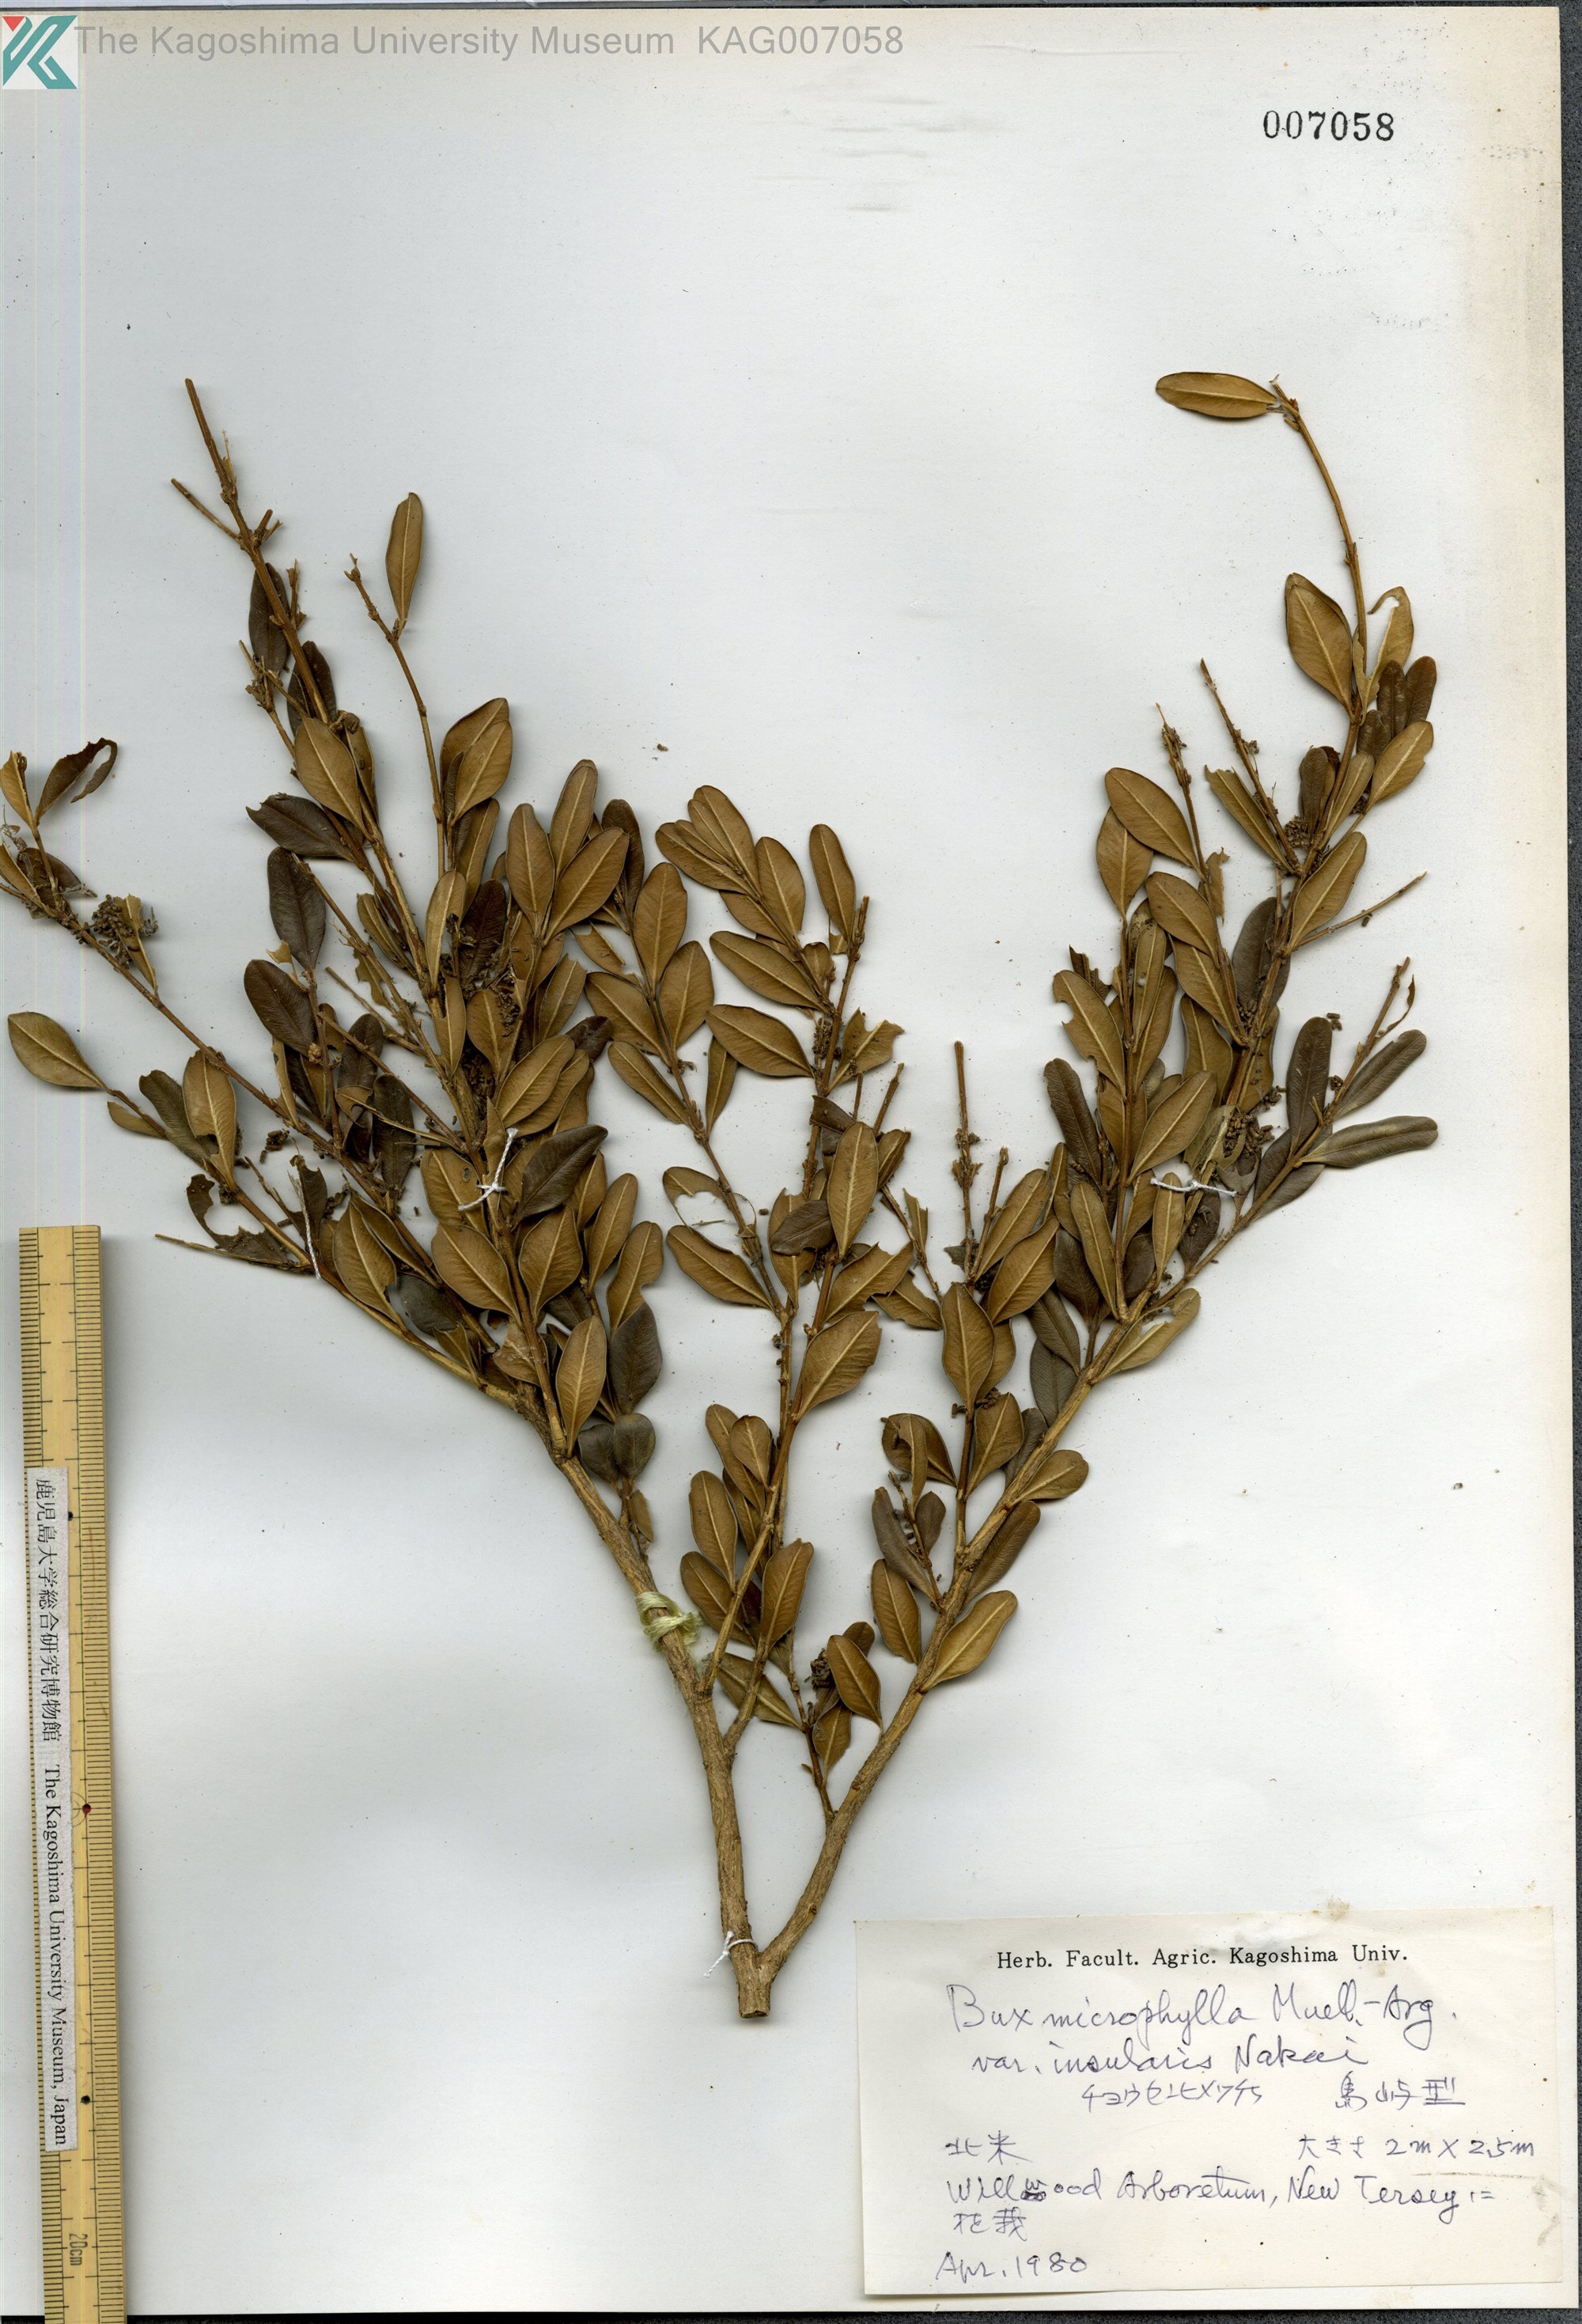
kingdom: Plantae
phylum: Tracheophyta
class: Magnoliopsida
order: Buxales
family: Buxaceae
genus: Buxus
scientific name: Buxus sinica
